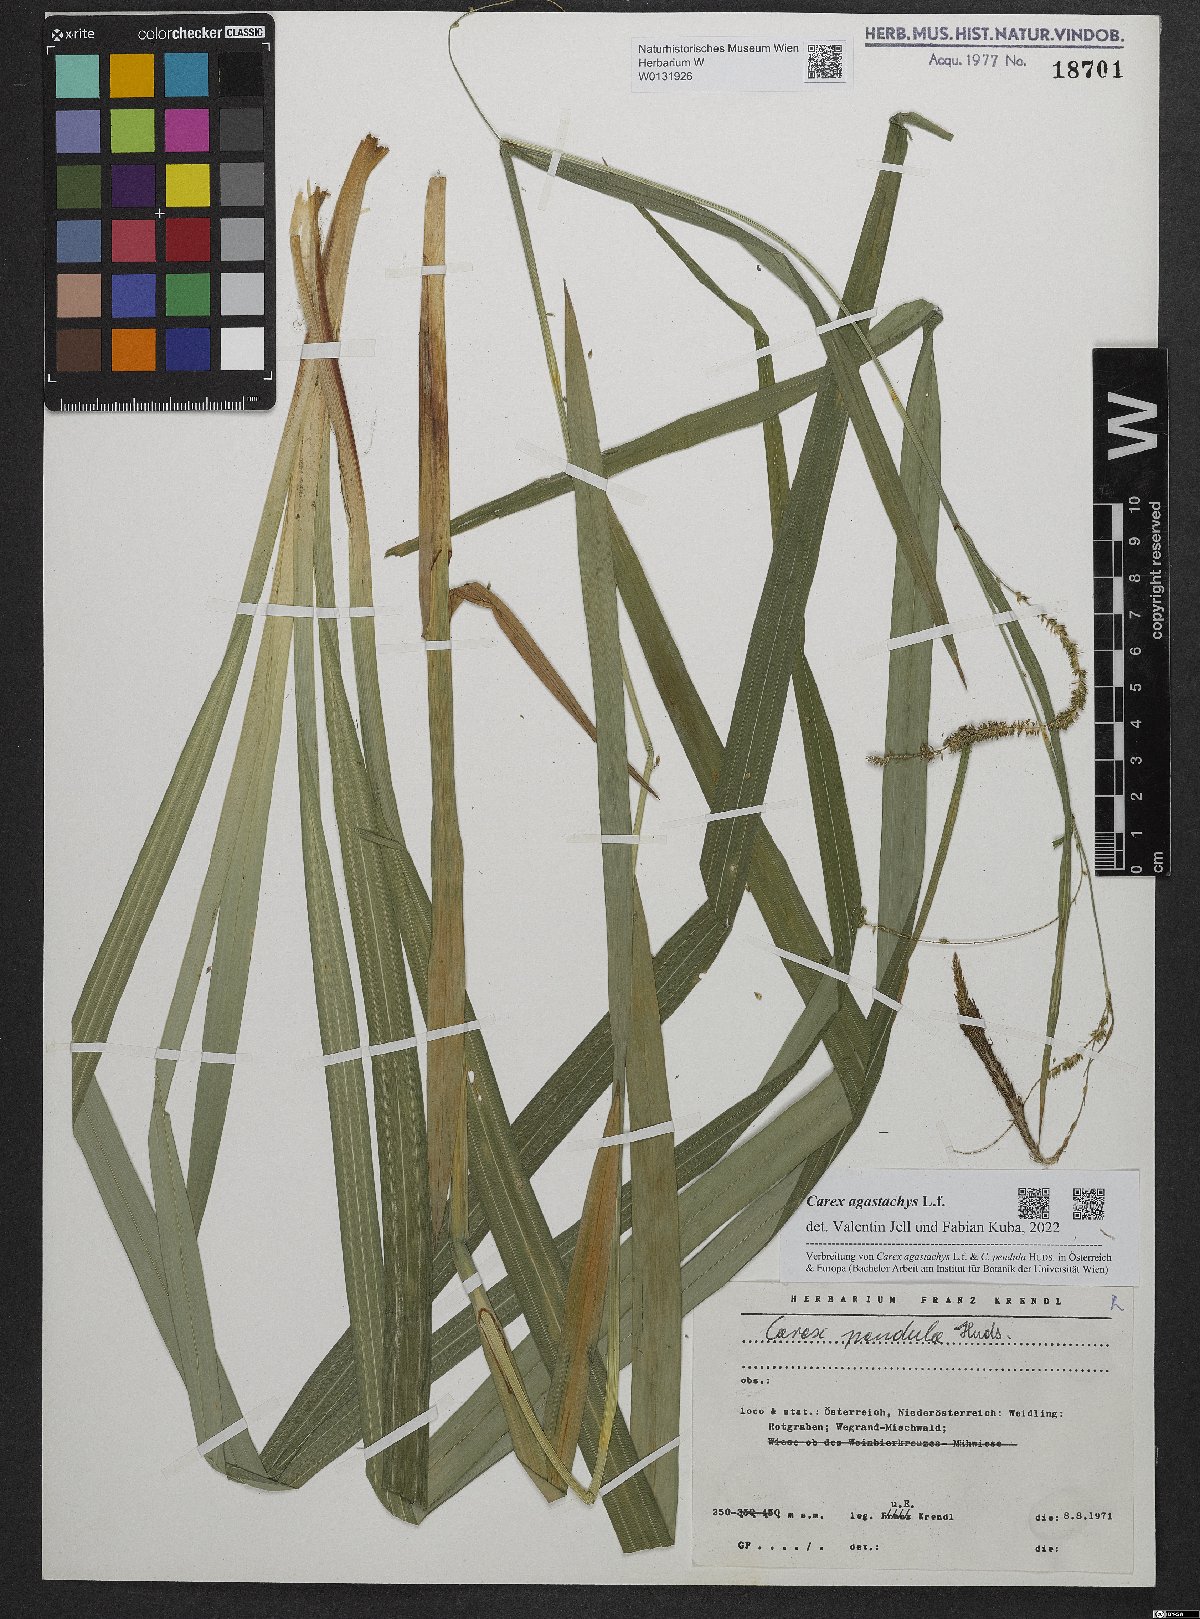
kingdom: Plantae
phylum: Tracheophyta
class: Liliopsida
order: Poales
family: Cyperaceae
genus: Carex
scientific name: Carex agastachys
